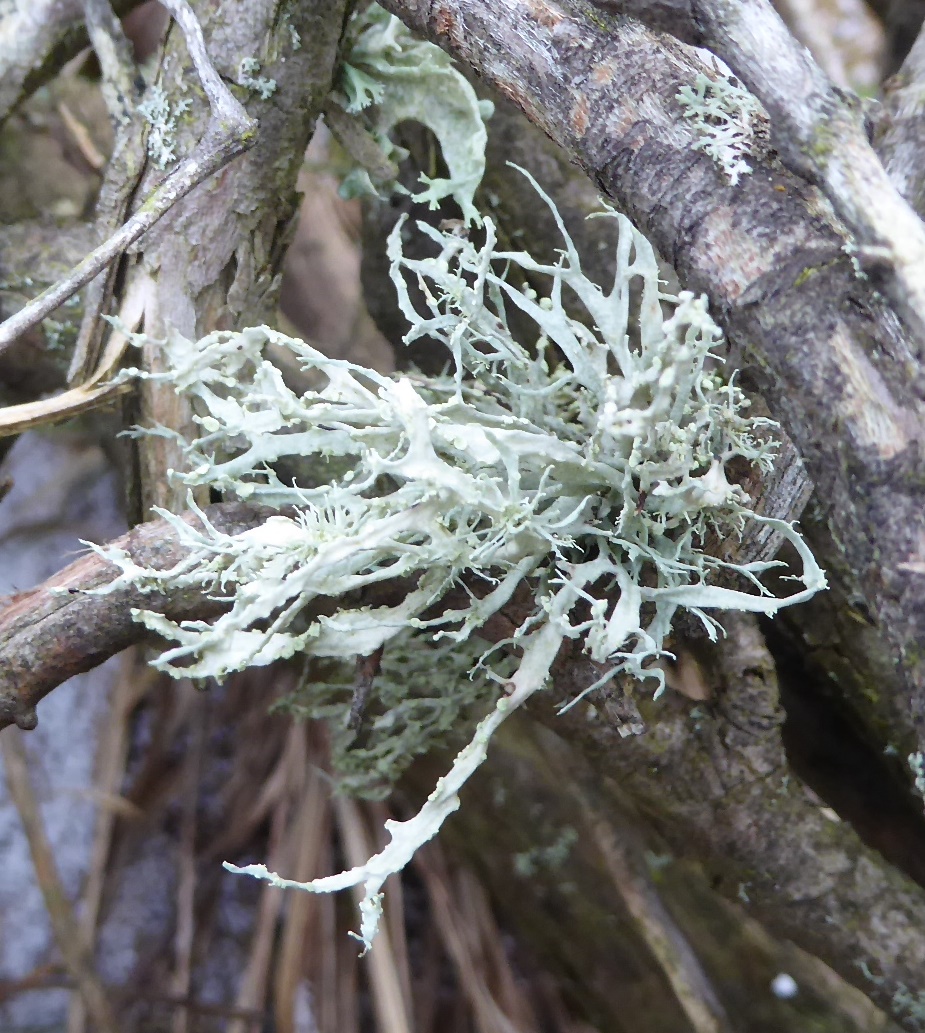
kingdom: Fungi
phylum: Ascomycota
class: Lecanoromycetes
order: Lecanorales
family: Ramalinaceae
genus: Ramalina
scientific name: Ramalina farinacea
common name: melet grenlav
